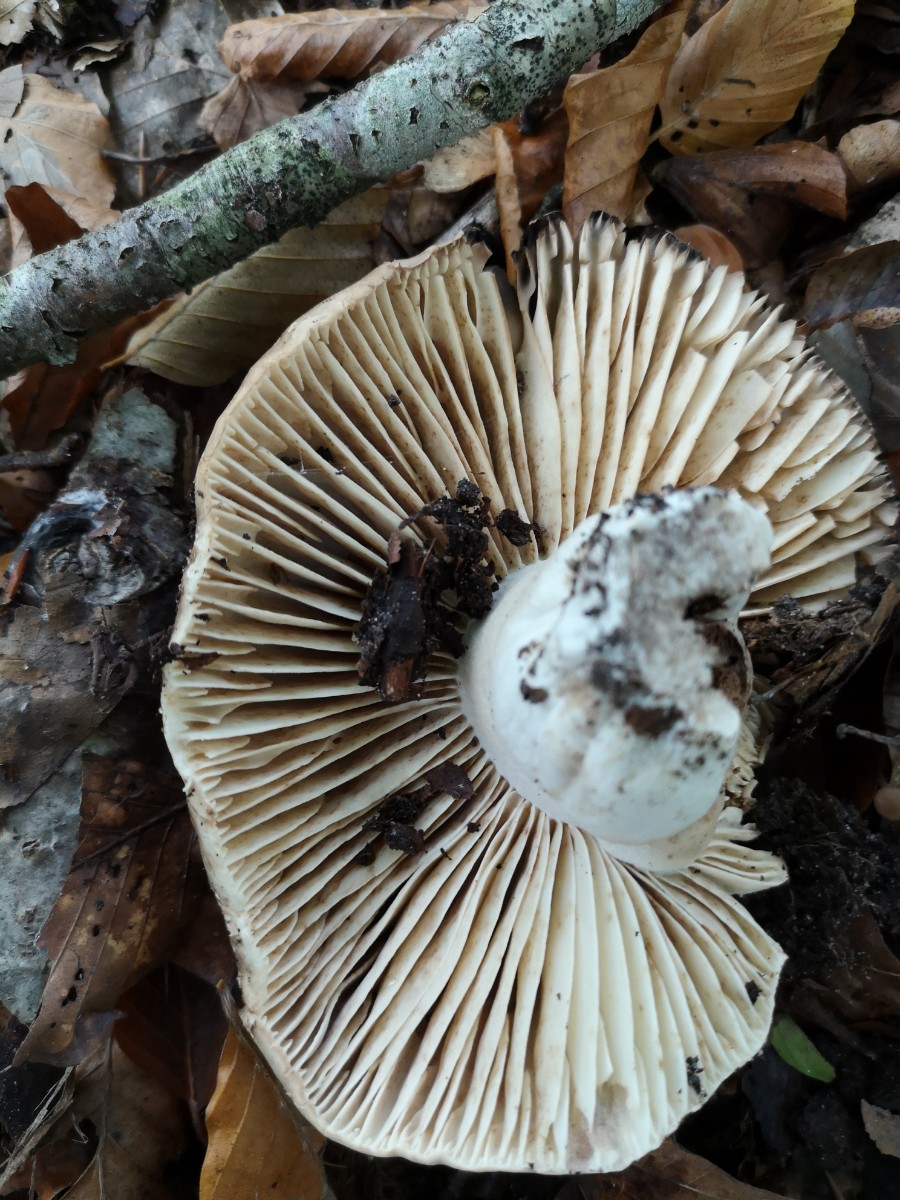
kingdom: Fungi
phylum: Basidiomycota
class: Agaricomycetes
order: Russulales
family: Russulaceae
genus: Russula
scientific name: Russula adusta
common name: sværtende skørhat
